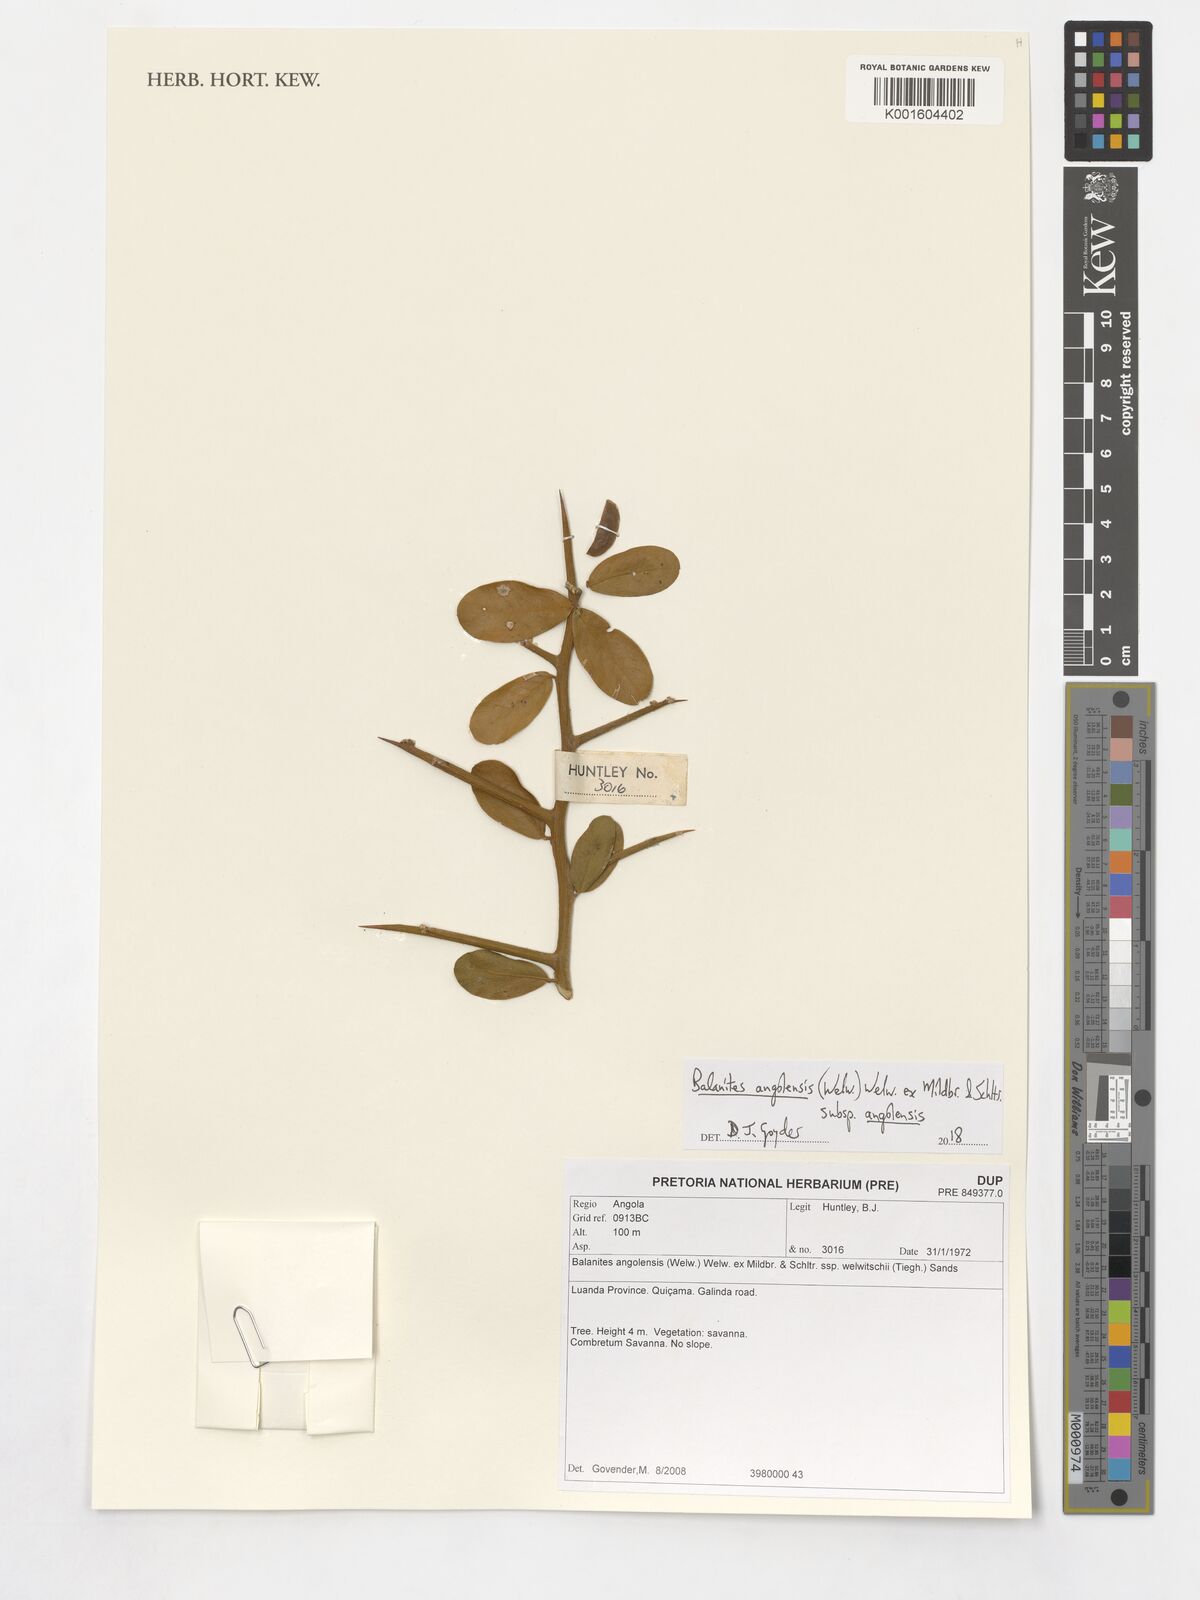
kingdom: Plantae
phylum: Tracheophyta
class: Magnoliopsida
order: Zygophyllales
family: Zygophyllaceae
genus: Balanites
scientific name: Balanites angolensis
